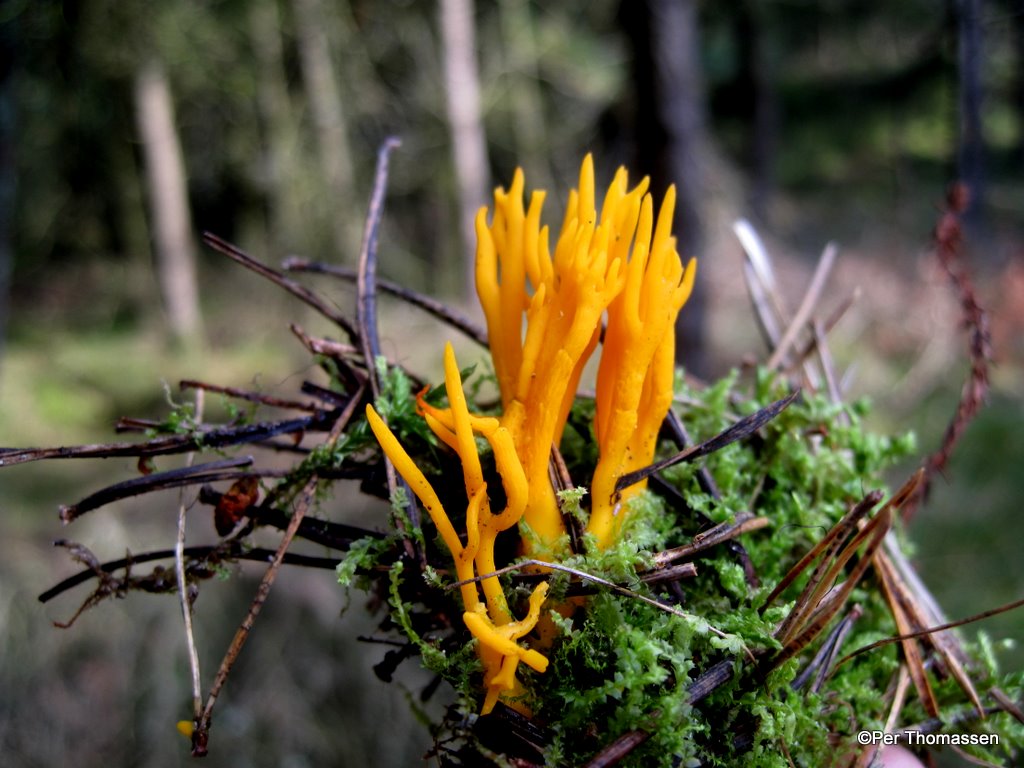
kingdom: Fungi
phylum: Basidiomycota
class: Dacrymycetes
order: Dacrymycetales
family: Dacrymycetaceae
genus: Calocera
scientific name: Calocera viscosa
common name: almindelig guldgaffel
